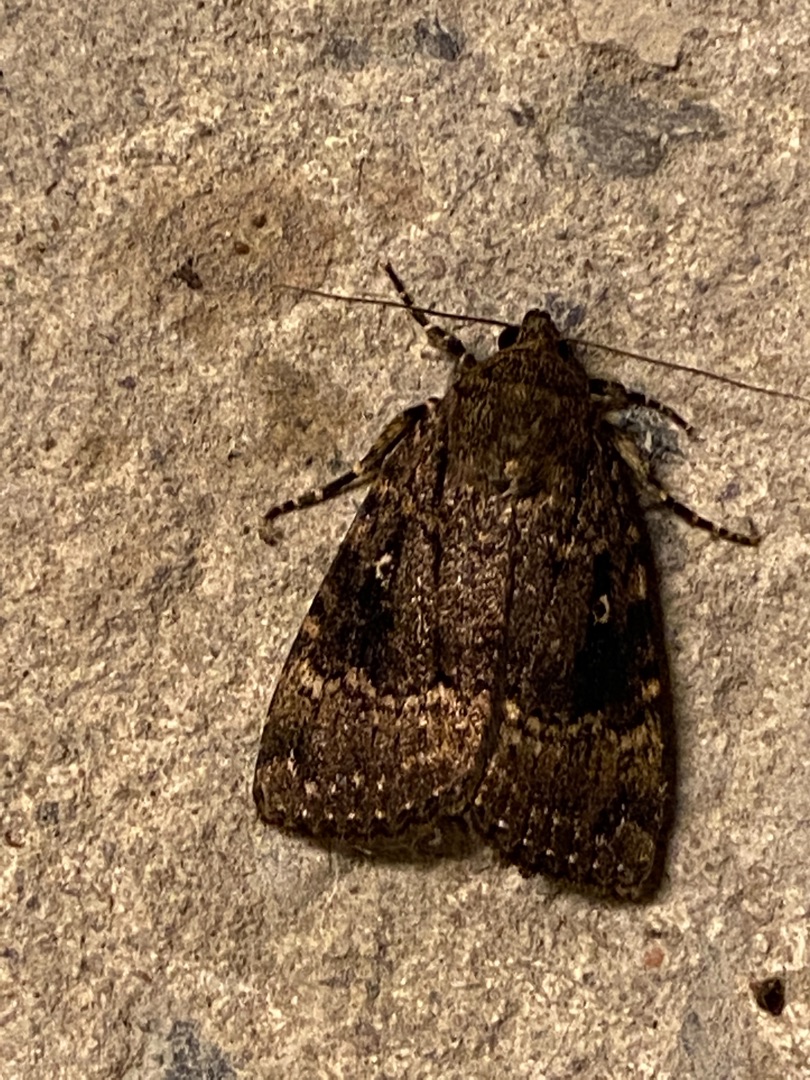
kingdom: Animalia
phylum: Arthropoda
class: Insecta
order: Lepidoptera
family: Noctuidae
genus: Amphipyra
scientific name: Amphipyra pyramidea
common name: Pyramideugle
